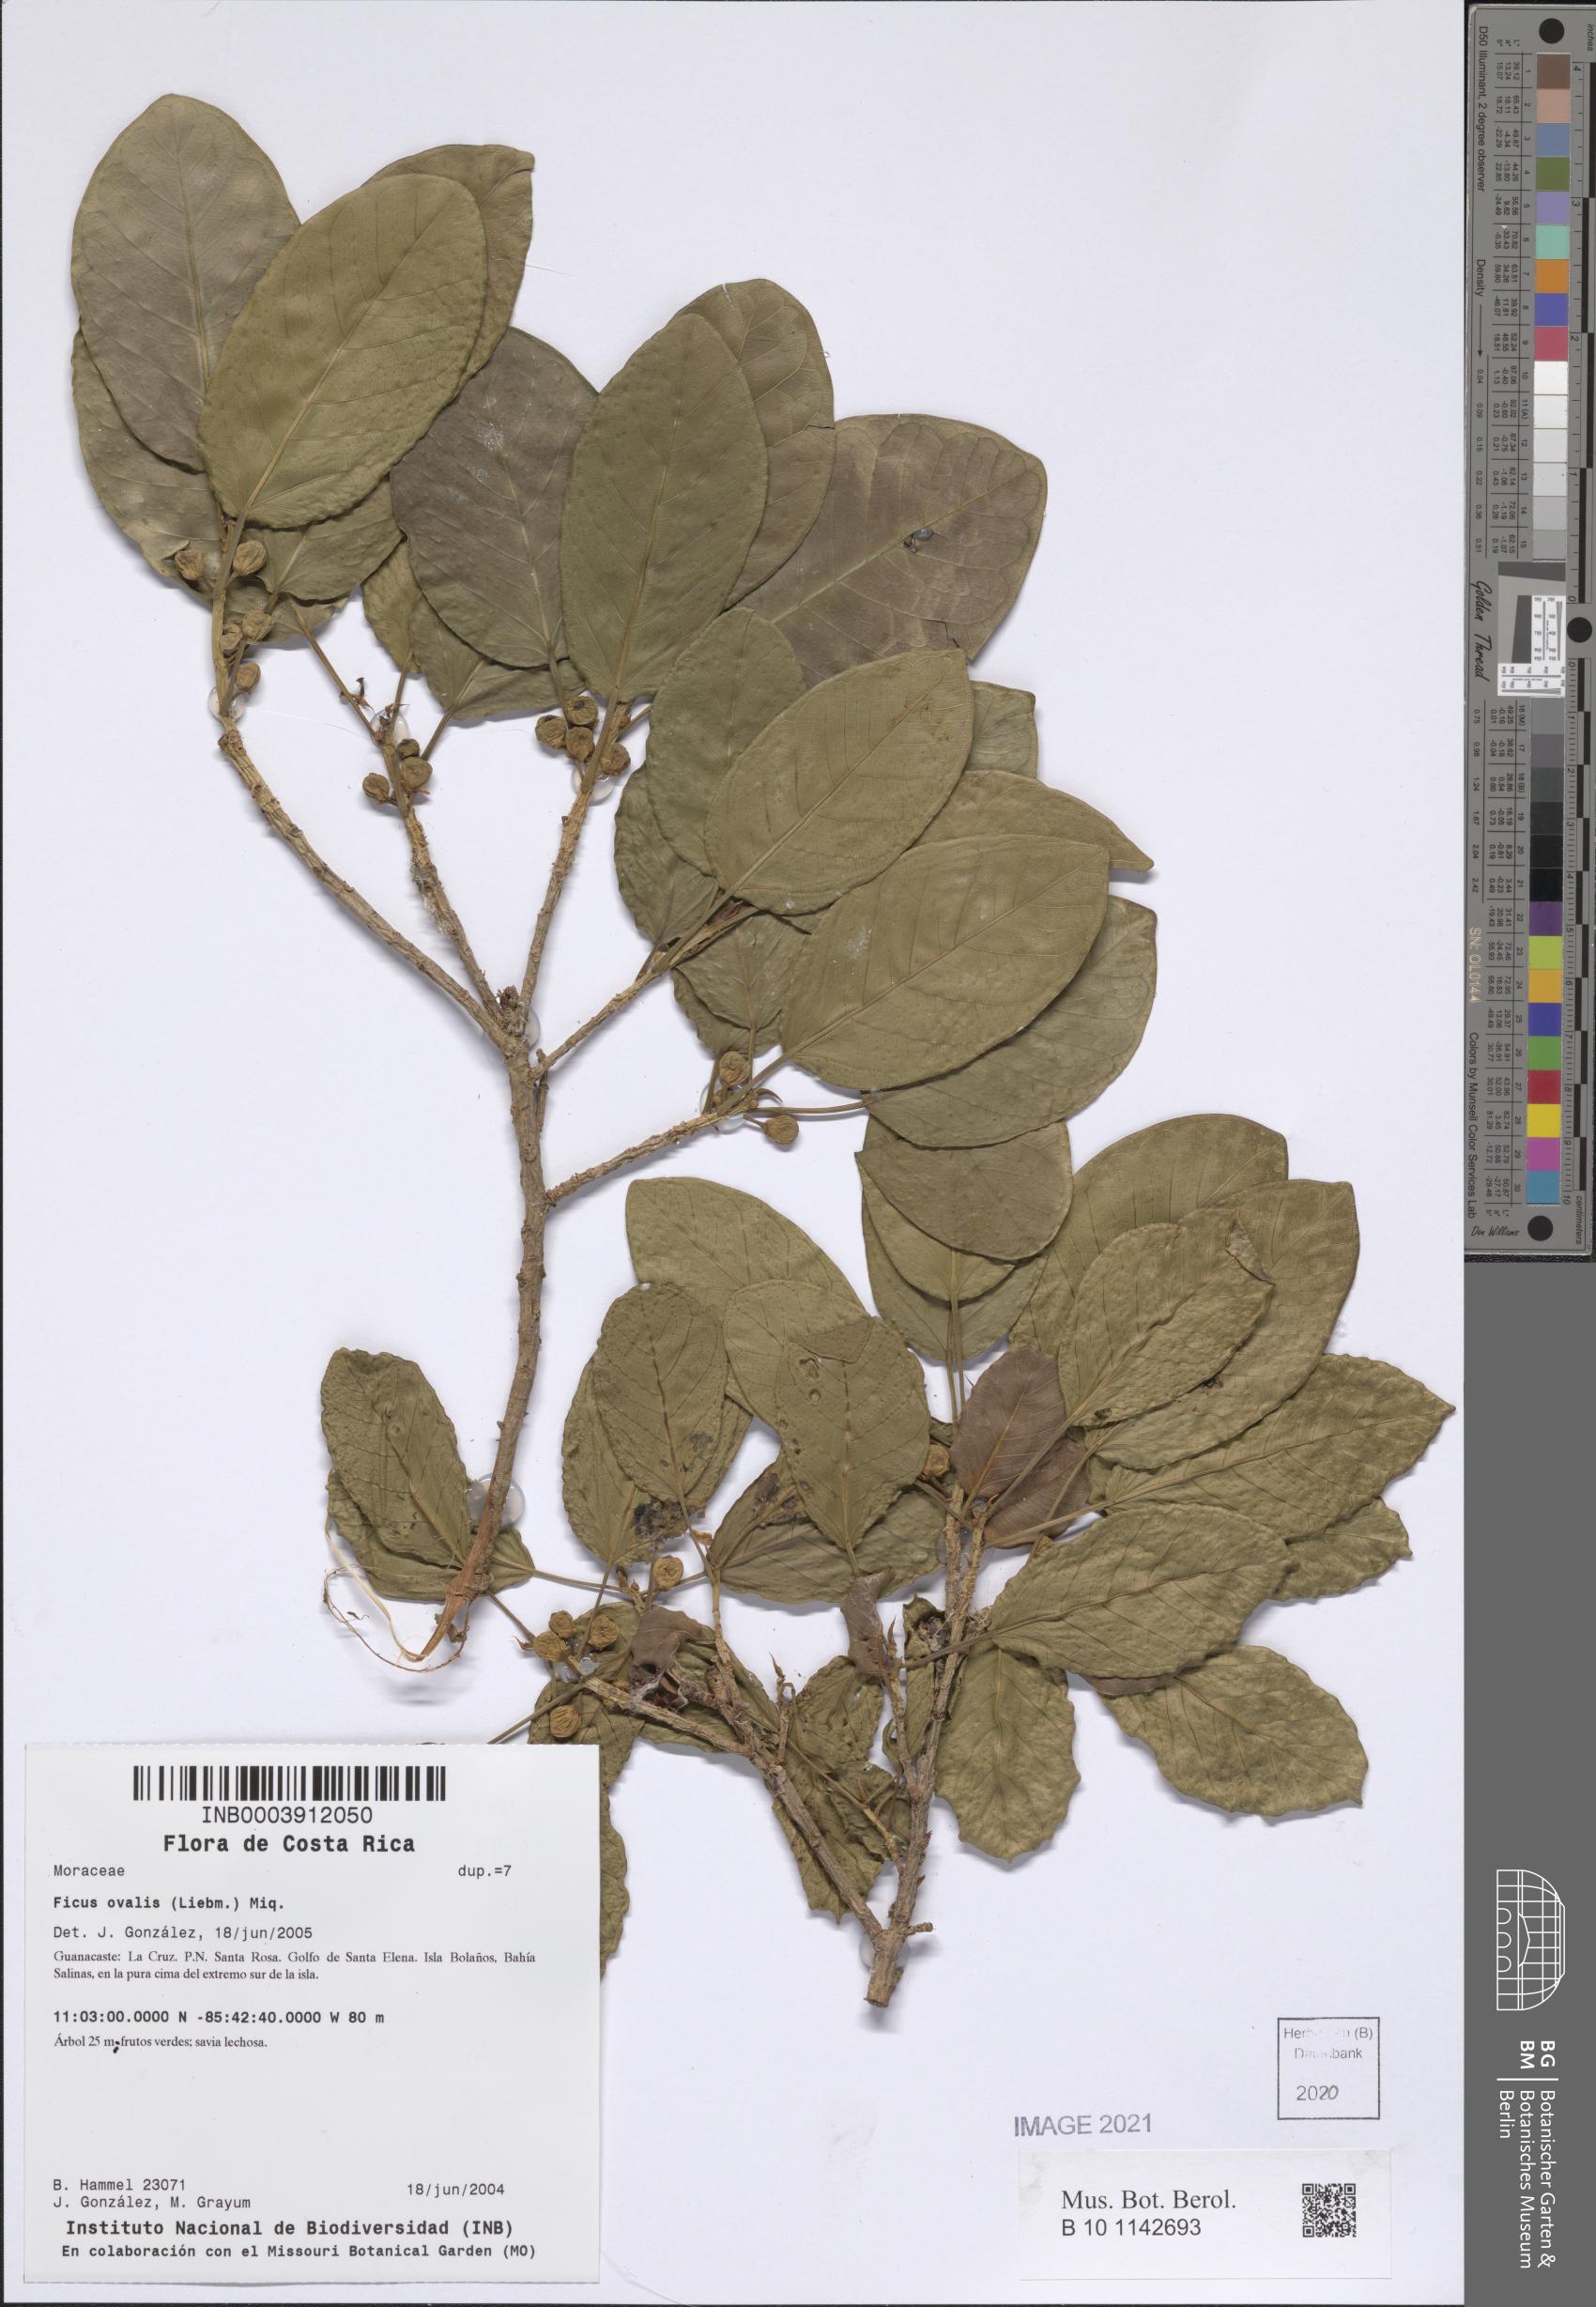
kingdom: Plantae
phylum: Tracheophyta
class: Magnoliopsida
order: Rosales
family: Moraceae
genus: Ficus
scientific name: Ficus crassinervia
